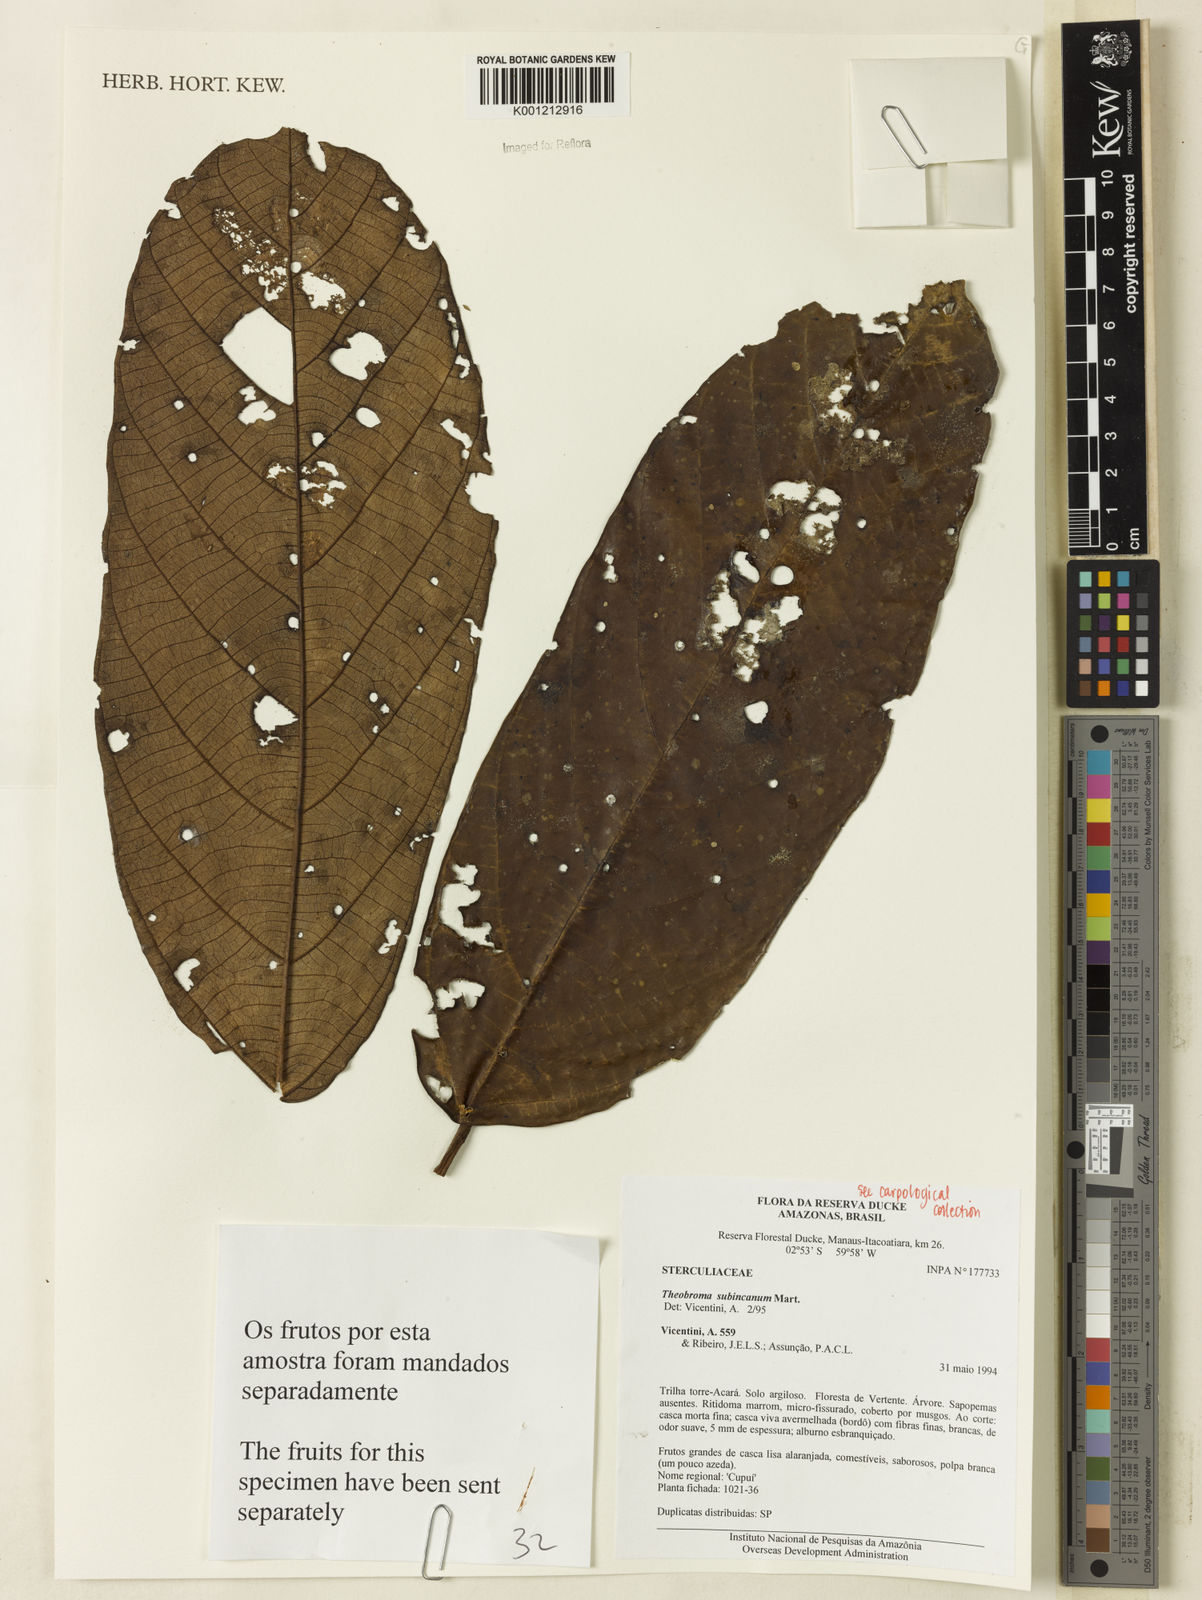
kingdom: Plantae
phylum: Tracheophyta
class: Magnoliopsida
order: Malvales
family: Malvaceae
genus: Theobroma
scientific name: Theobroma subincanum
